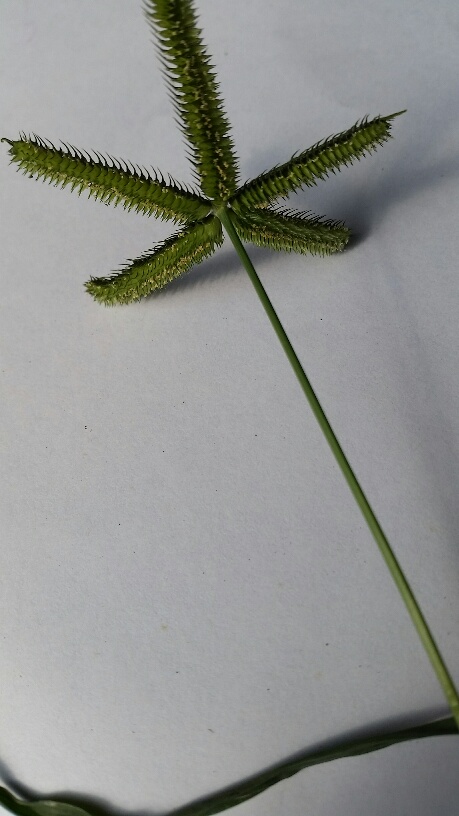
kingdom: Plantae
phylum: Tracheophyta
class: Liliopsida
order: Poales
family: Poaceae
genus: Dactyloctenium
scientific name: Dactyloctenium aegyptium
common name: Egyptian grass
